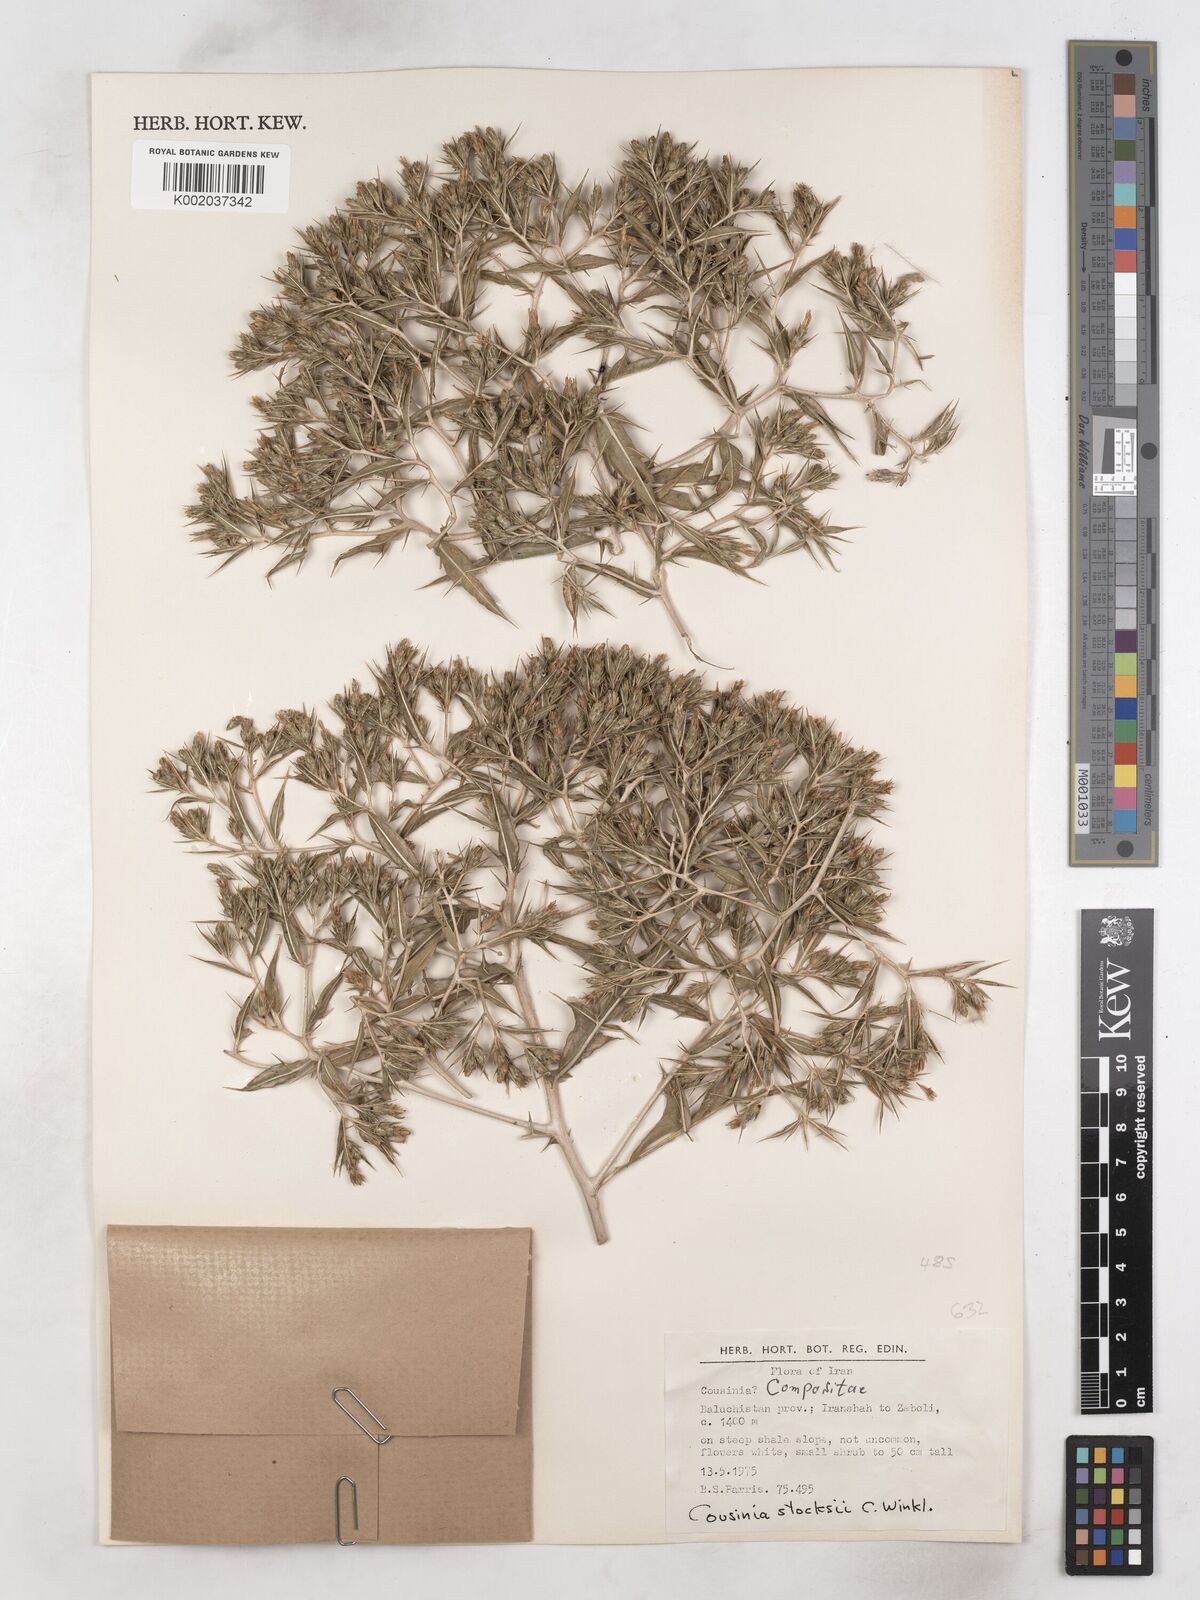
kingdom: Plantae
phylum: Tracheophyta
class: Magnoliopsida
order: Asterales
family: Asteraceae
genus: Cousinia
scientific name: Cousinia stocksii
